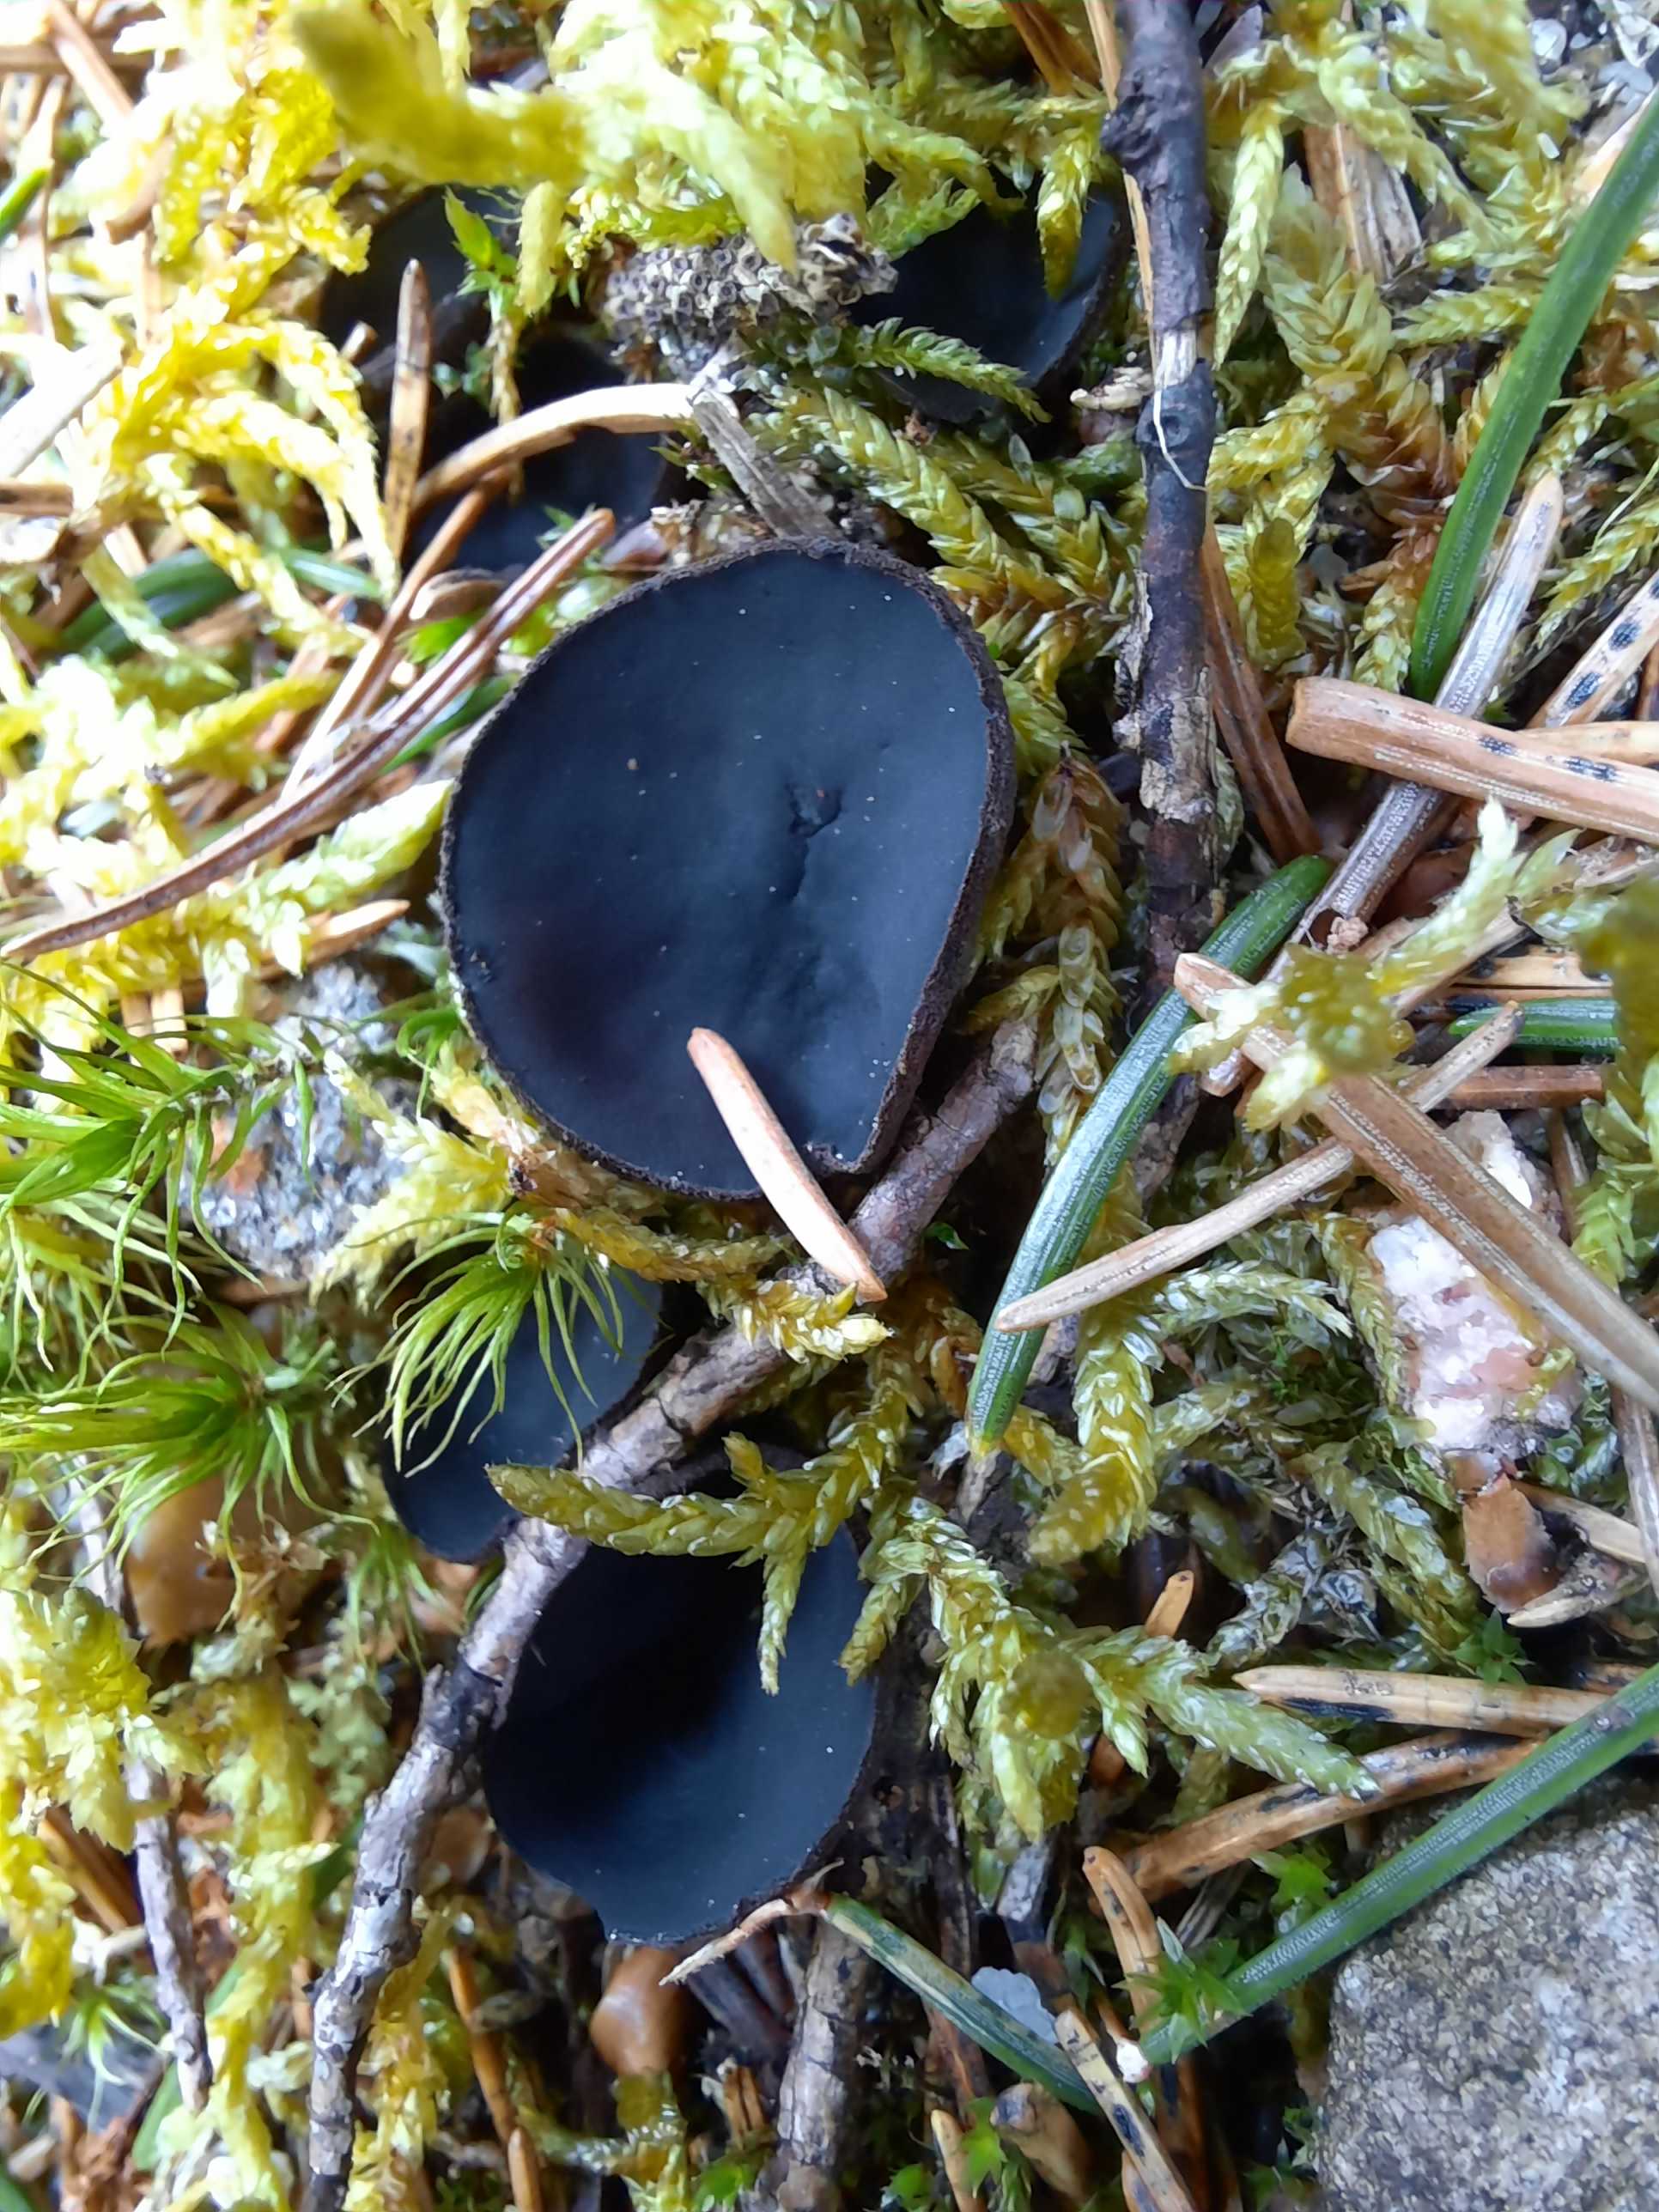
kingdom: Fungi
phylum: Ascomycota
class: Pezizomycetes
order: Pezizales
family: Sarcosomataceae
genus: Pseudoplectania
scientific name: Pseudoplectania nigrella
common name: almindelig sortbæger
